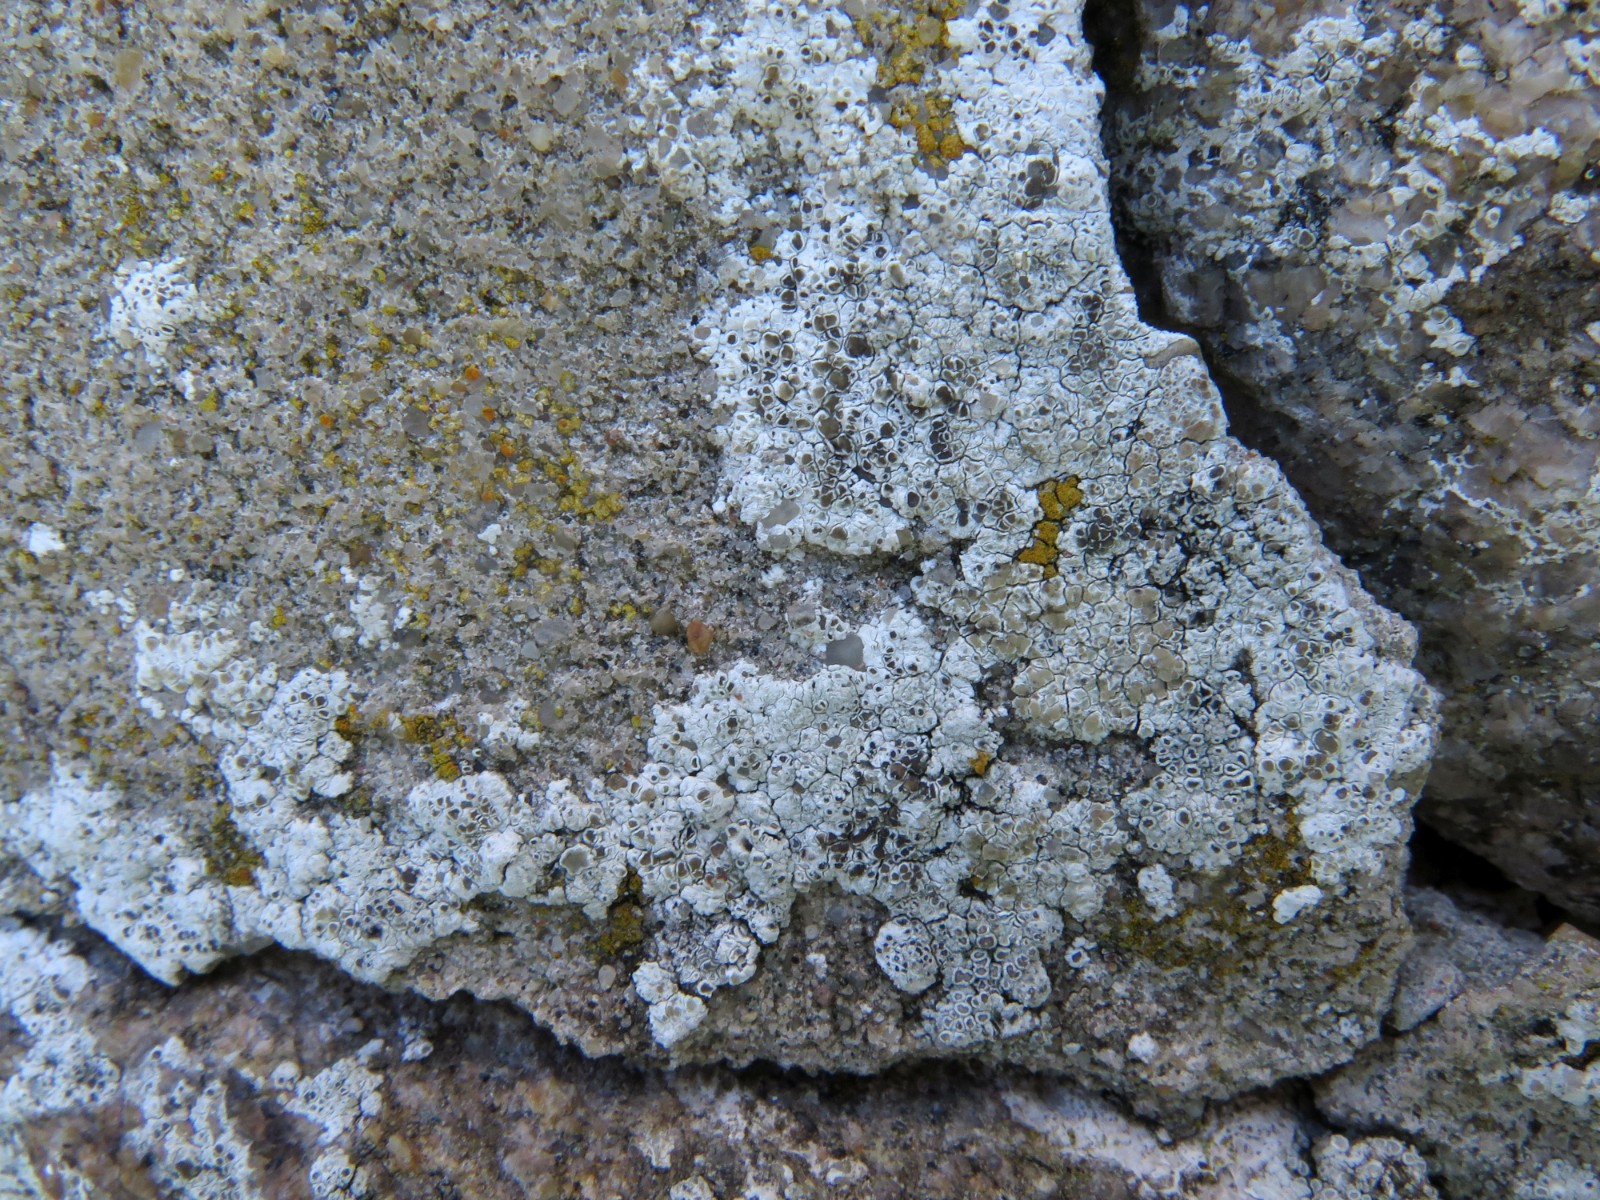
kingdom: Fungi
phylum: Ascomycota
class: Lecanoromycetes
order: Lecanorales
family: Lecanoraceae
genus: Polyozosia
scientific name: Polyozosia albescens
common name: cement-kantskivelav
